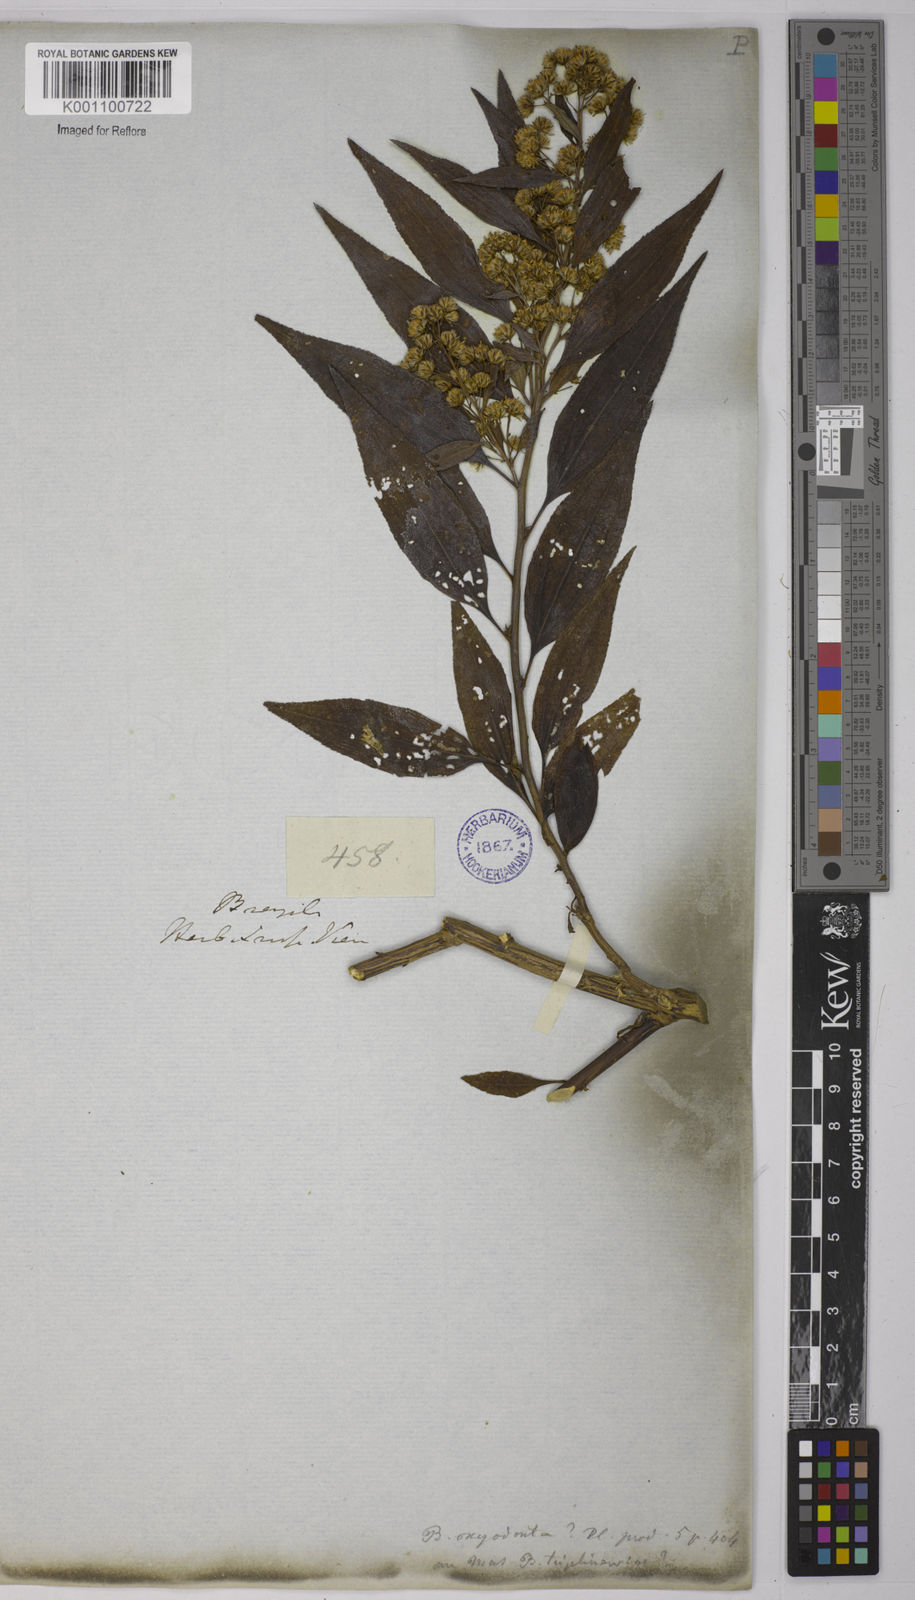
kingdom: Plantae
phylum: Tracheophyta
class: Magnoliopsida
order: Asterales
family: Asteraceae
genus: Baccharis
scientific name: Baccharis oxyodonta
